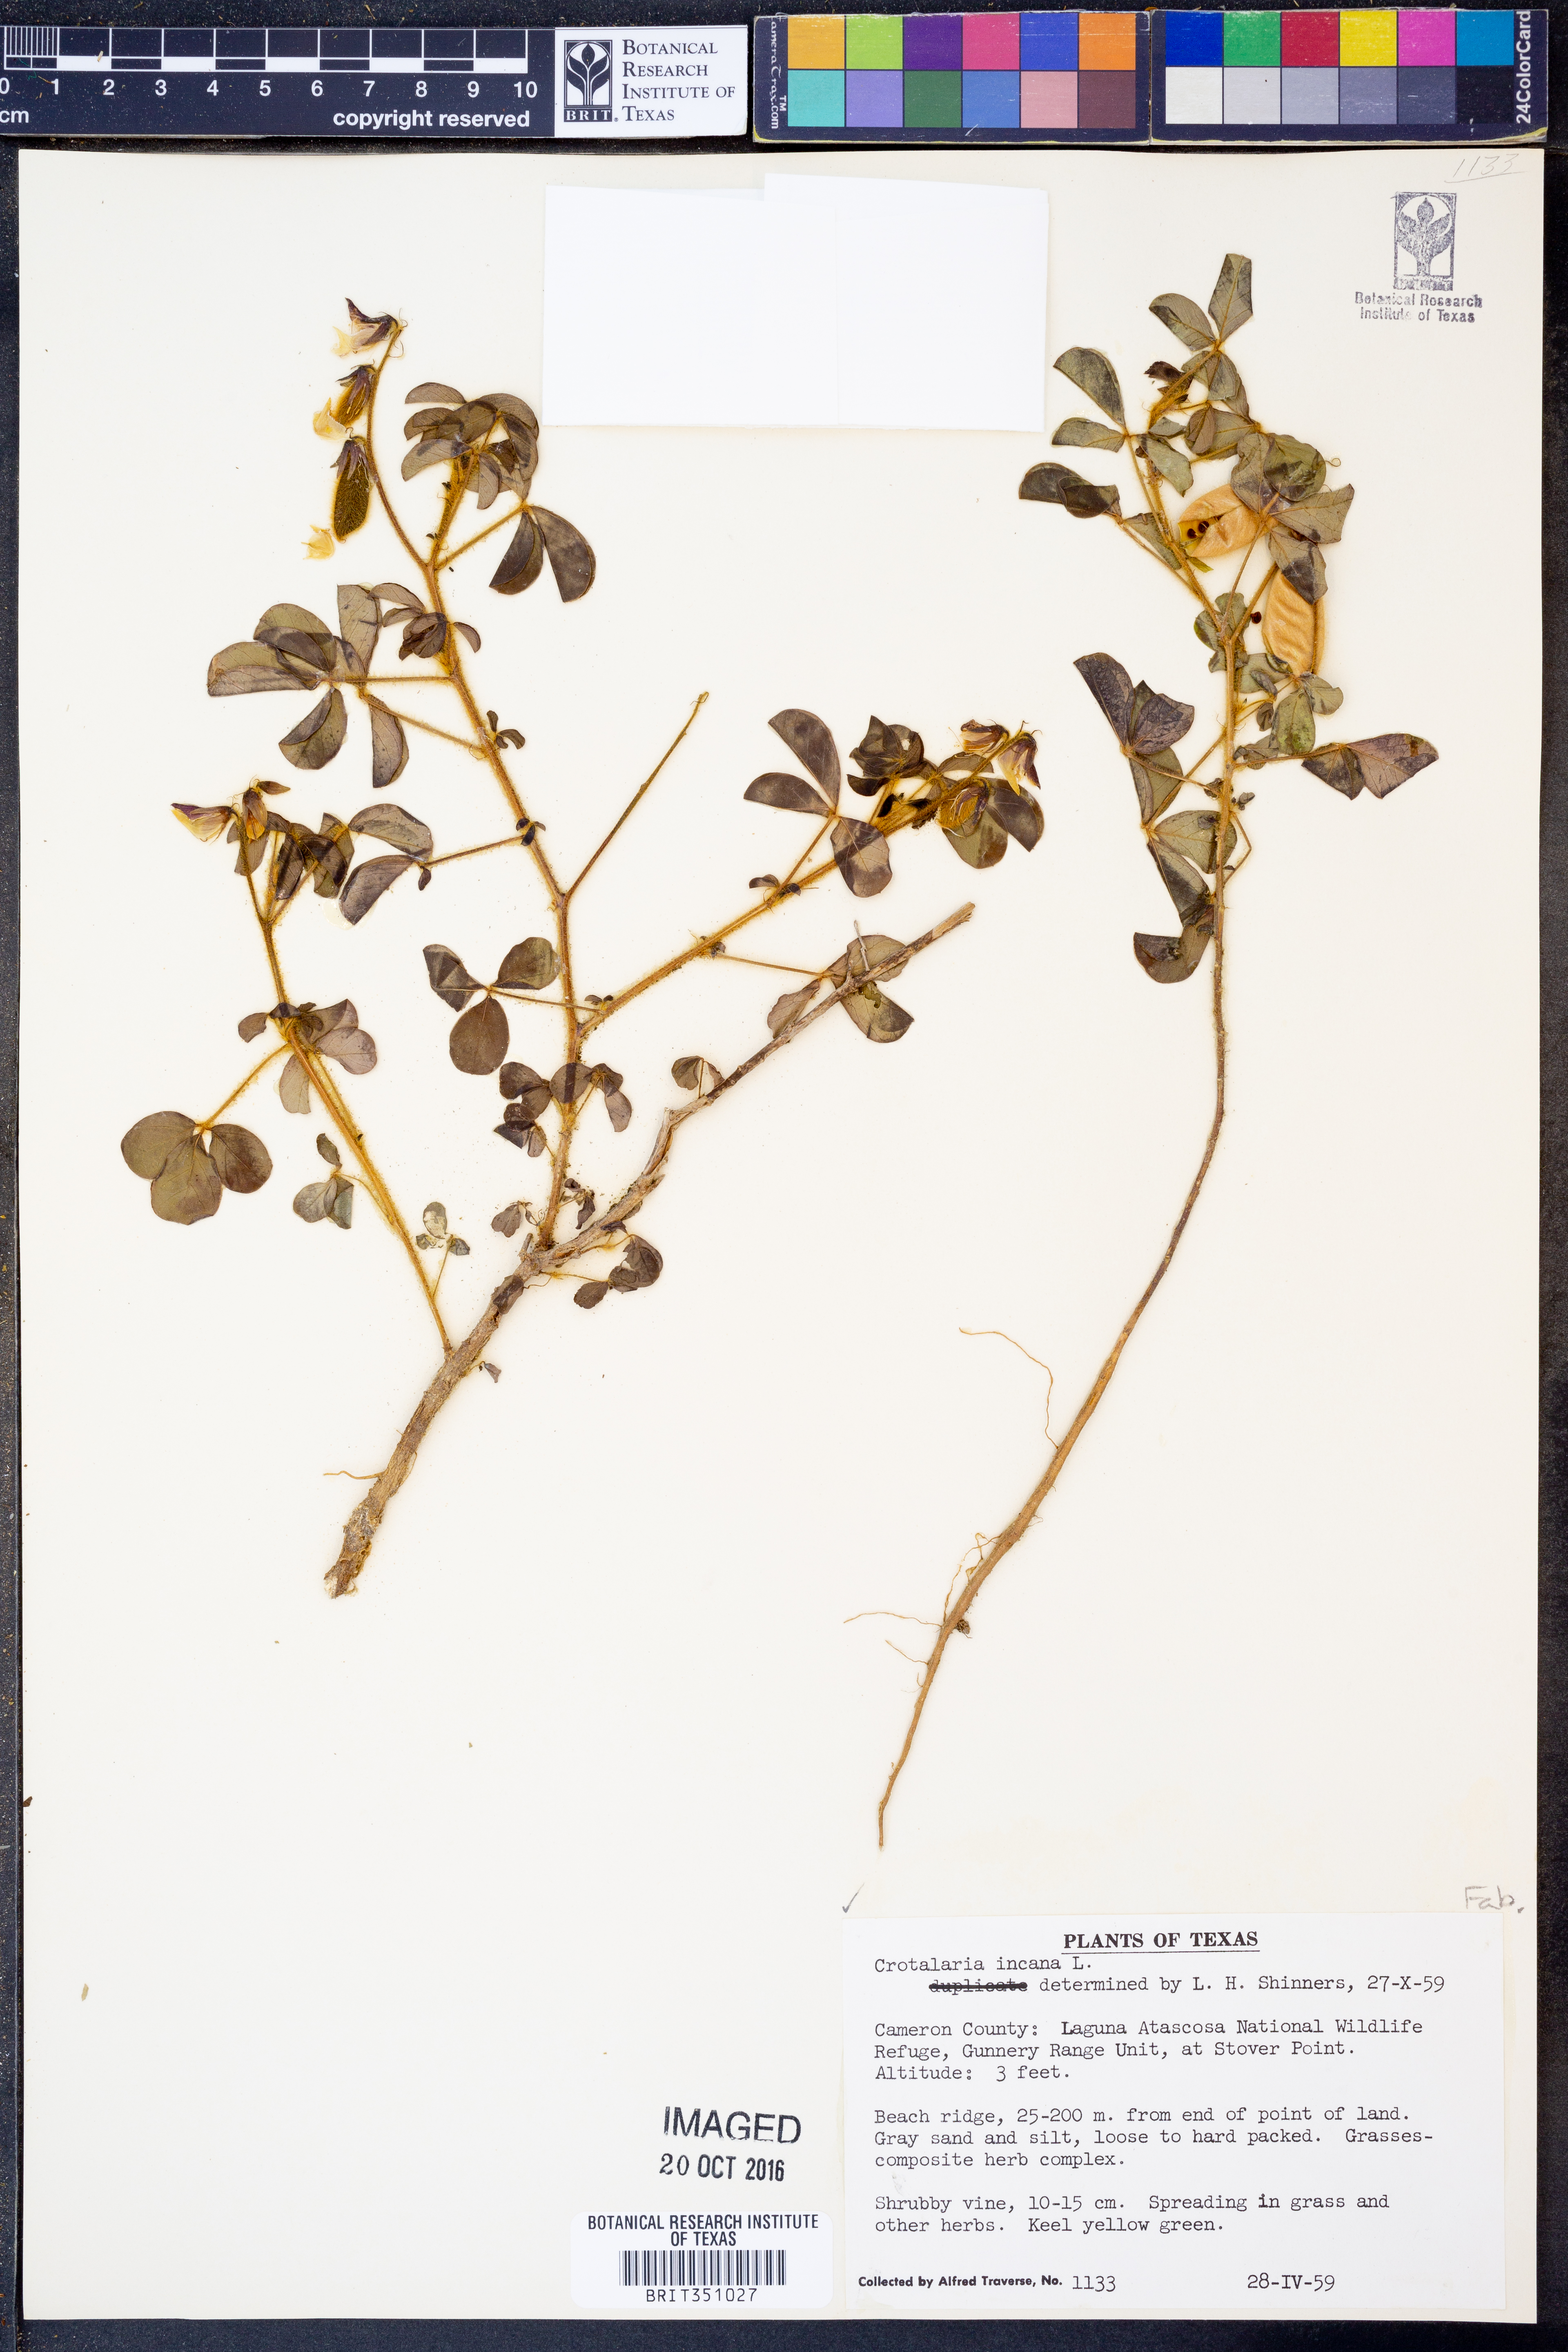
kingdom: Plantae
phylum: Tracheophyta
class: Magnoliopsida
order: Fabales
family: Fabaceae
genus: Crotalaria
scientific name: Crotalaria incana
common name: Shakeshake
